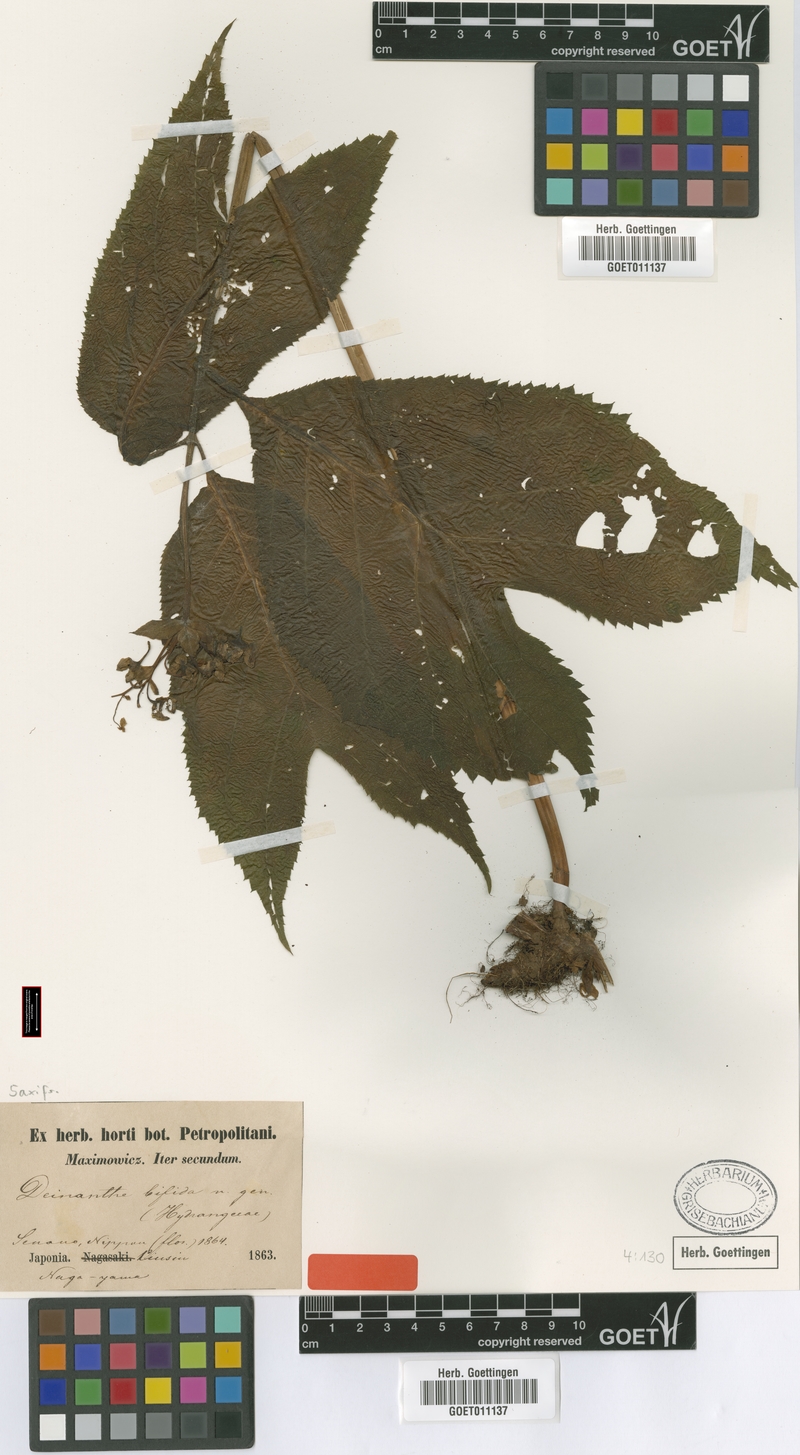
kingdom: Plantae
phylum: Tracheophyta
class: Magnoliopsida
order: Cornales
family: Hydrangeaceae
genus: Hydrangea
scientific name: Hydrangea bifida
